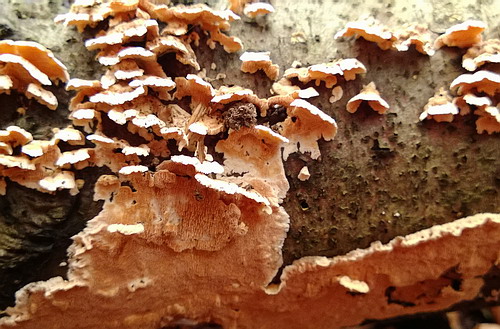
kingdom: Fungi
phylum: Basidiomycota
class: Agaricomycetes
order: Polyporales
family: Steccherinaceae
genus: Steccherinum
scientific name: Steccherinum ochraceum
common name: almindelig skønpig
